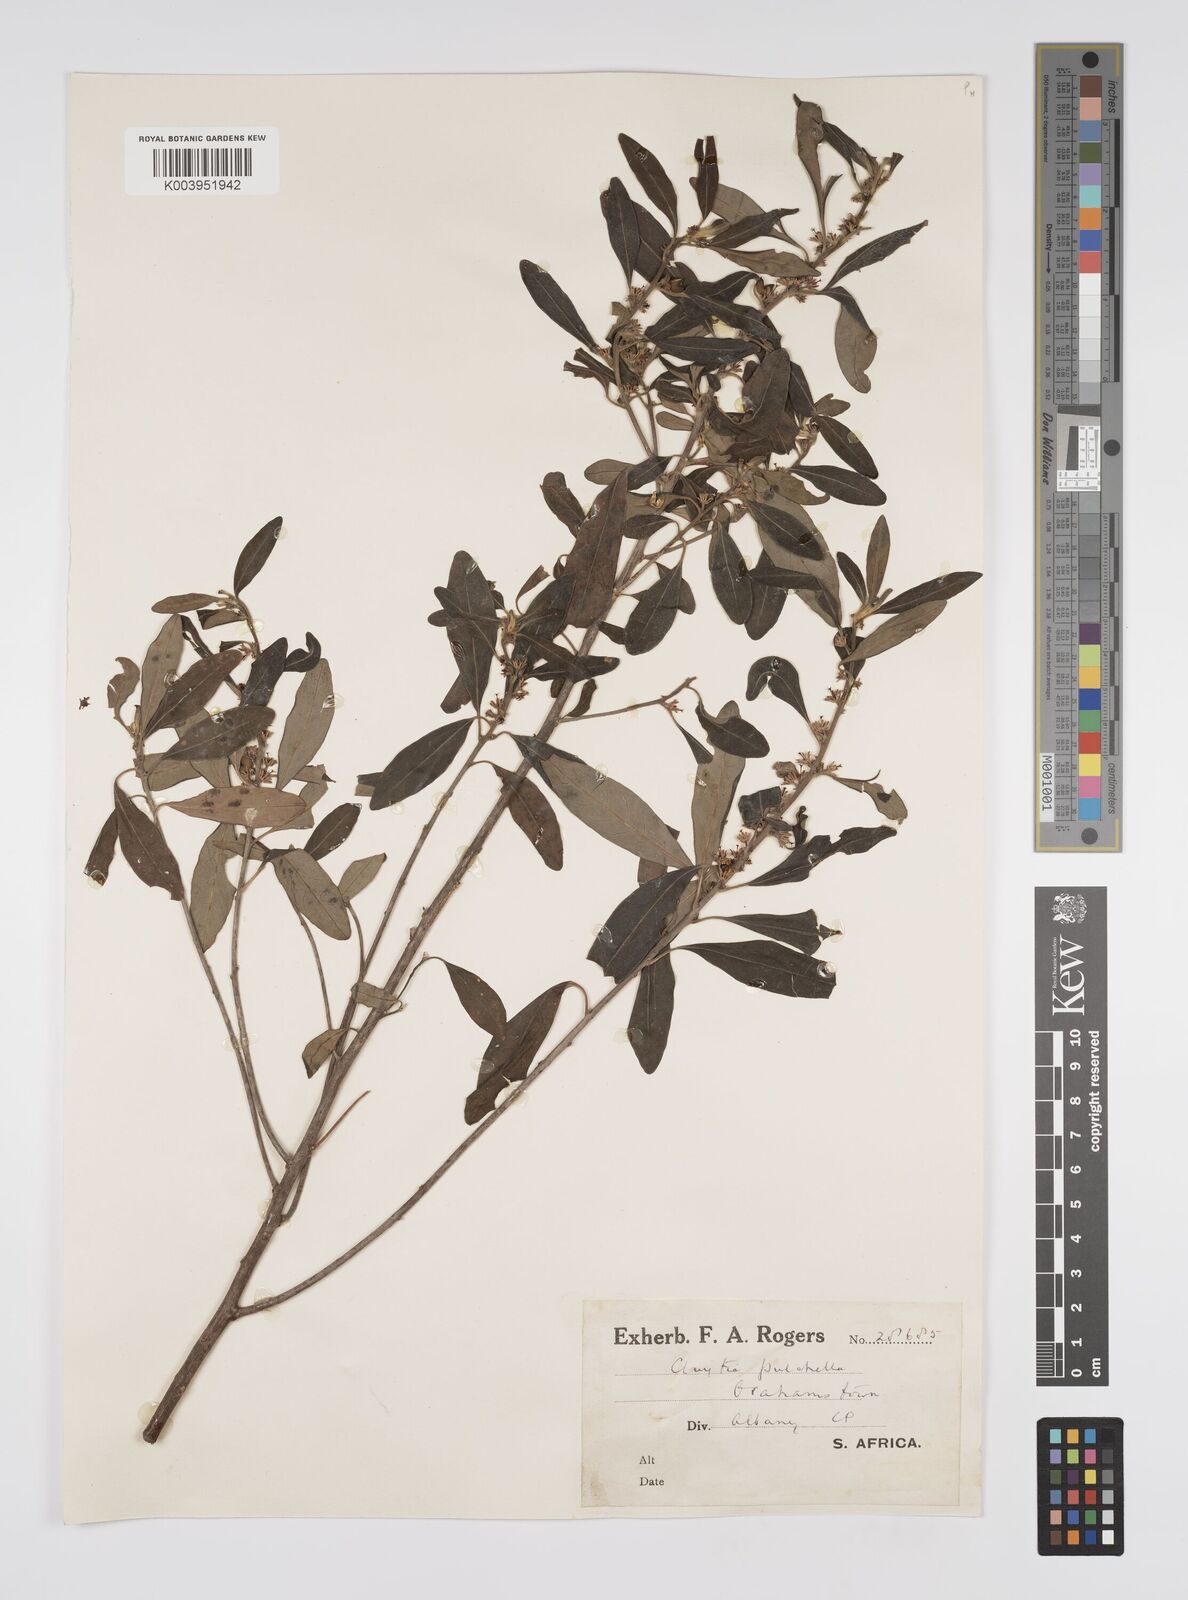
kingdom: Plantae
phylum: Tracheophyta
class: Magnoliopsida
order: Malpighiales
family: Peraceae
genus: Clutia
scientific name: Clutia pulchella
